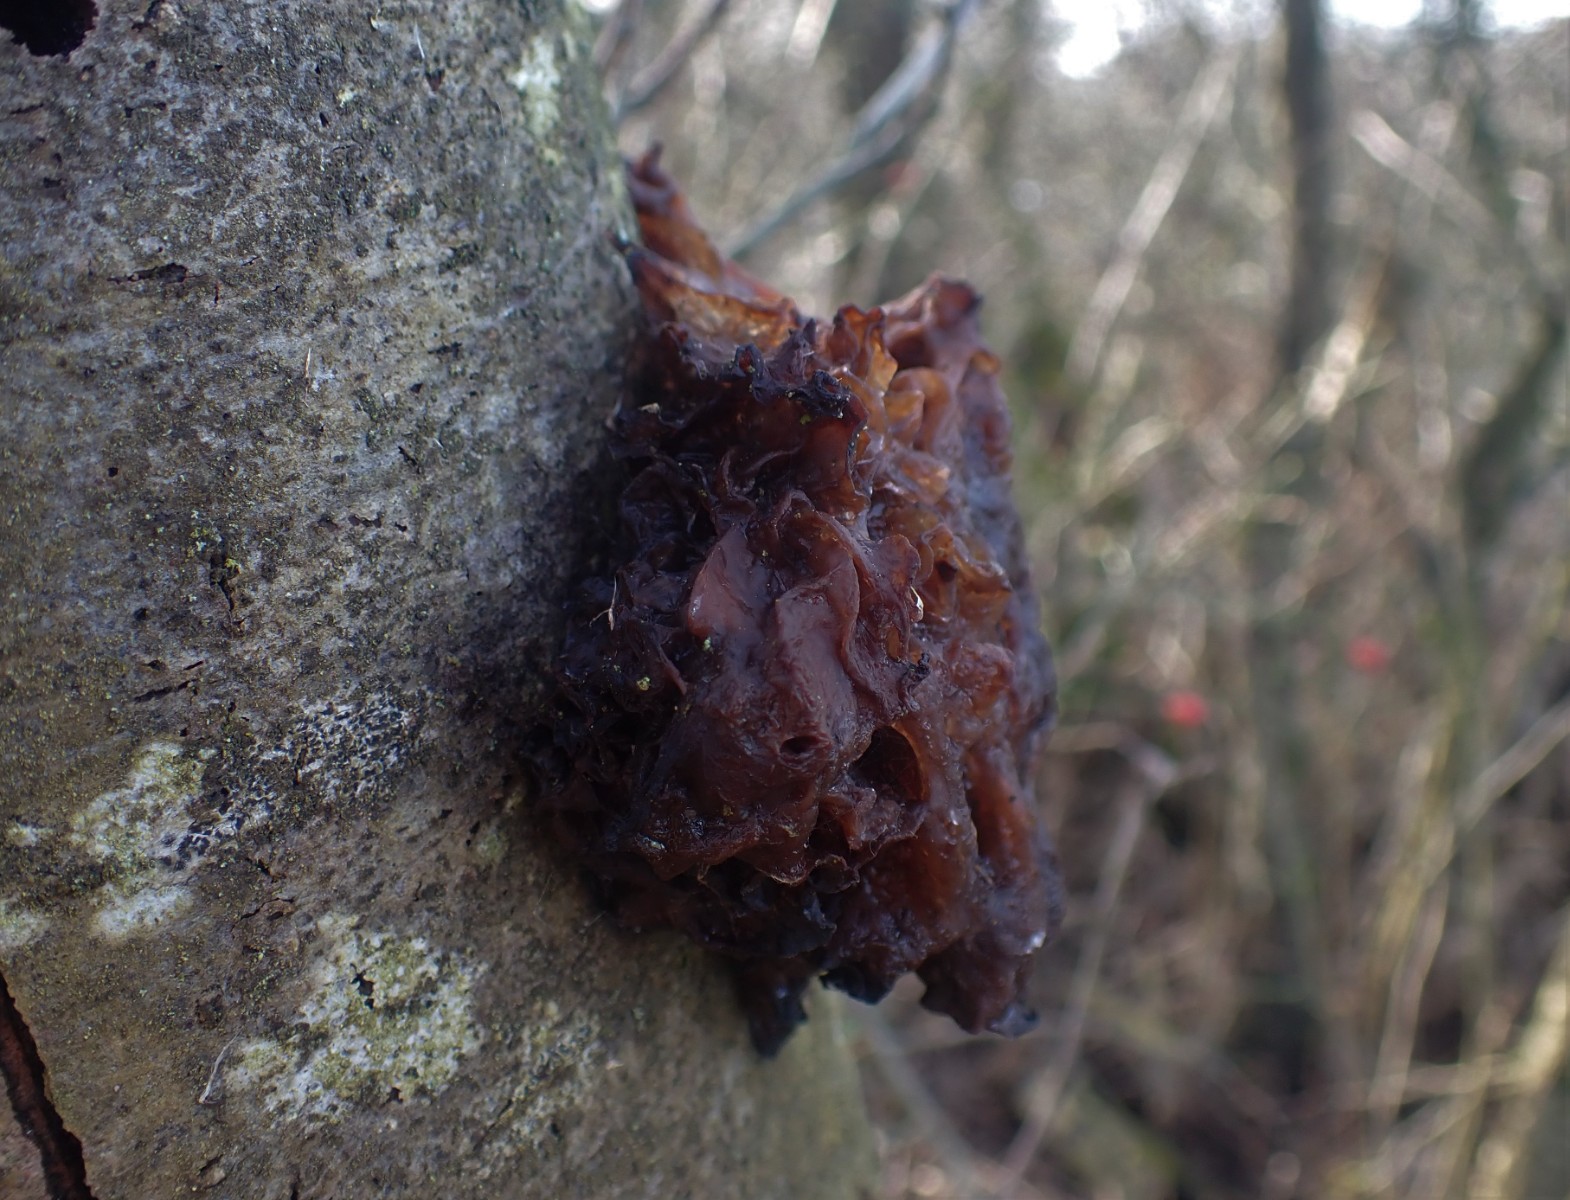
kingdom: Fungi
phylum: Basidiomycota
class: Tremellomycetes
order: Tremellales
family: Tremellaceae
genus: Phaeotremella
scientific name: Phaeotremella frondosa
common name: kæmpe-bævresvamp
